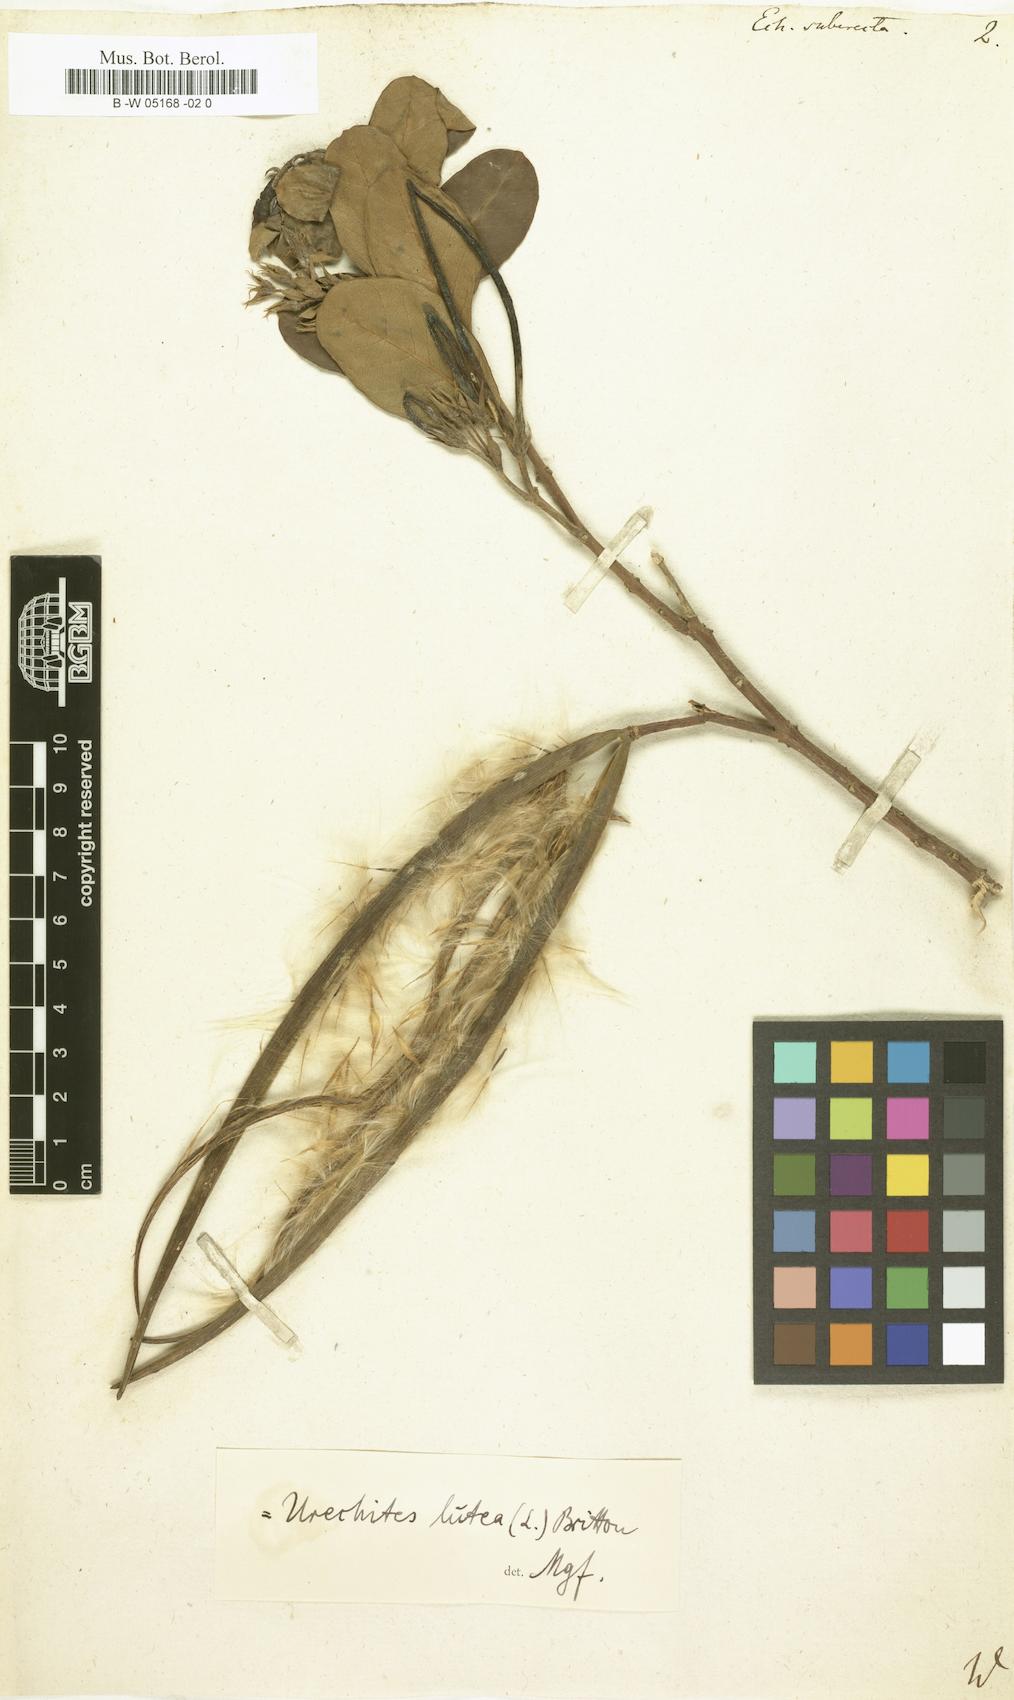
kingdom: Plantae
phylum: Tracheophyta
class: Magnoliopsida
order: Gentianales
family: Apocynaceae
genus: Pentalinon
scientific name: Pentalinon luteum
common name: Licebush
